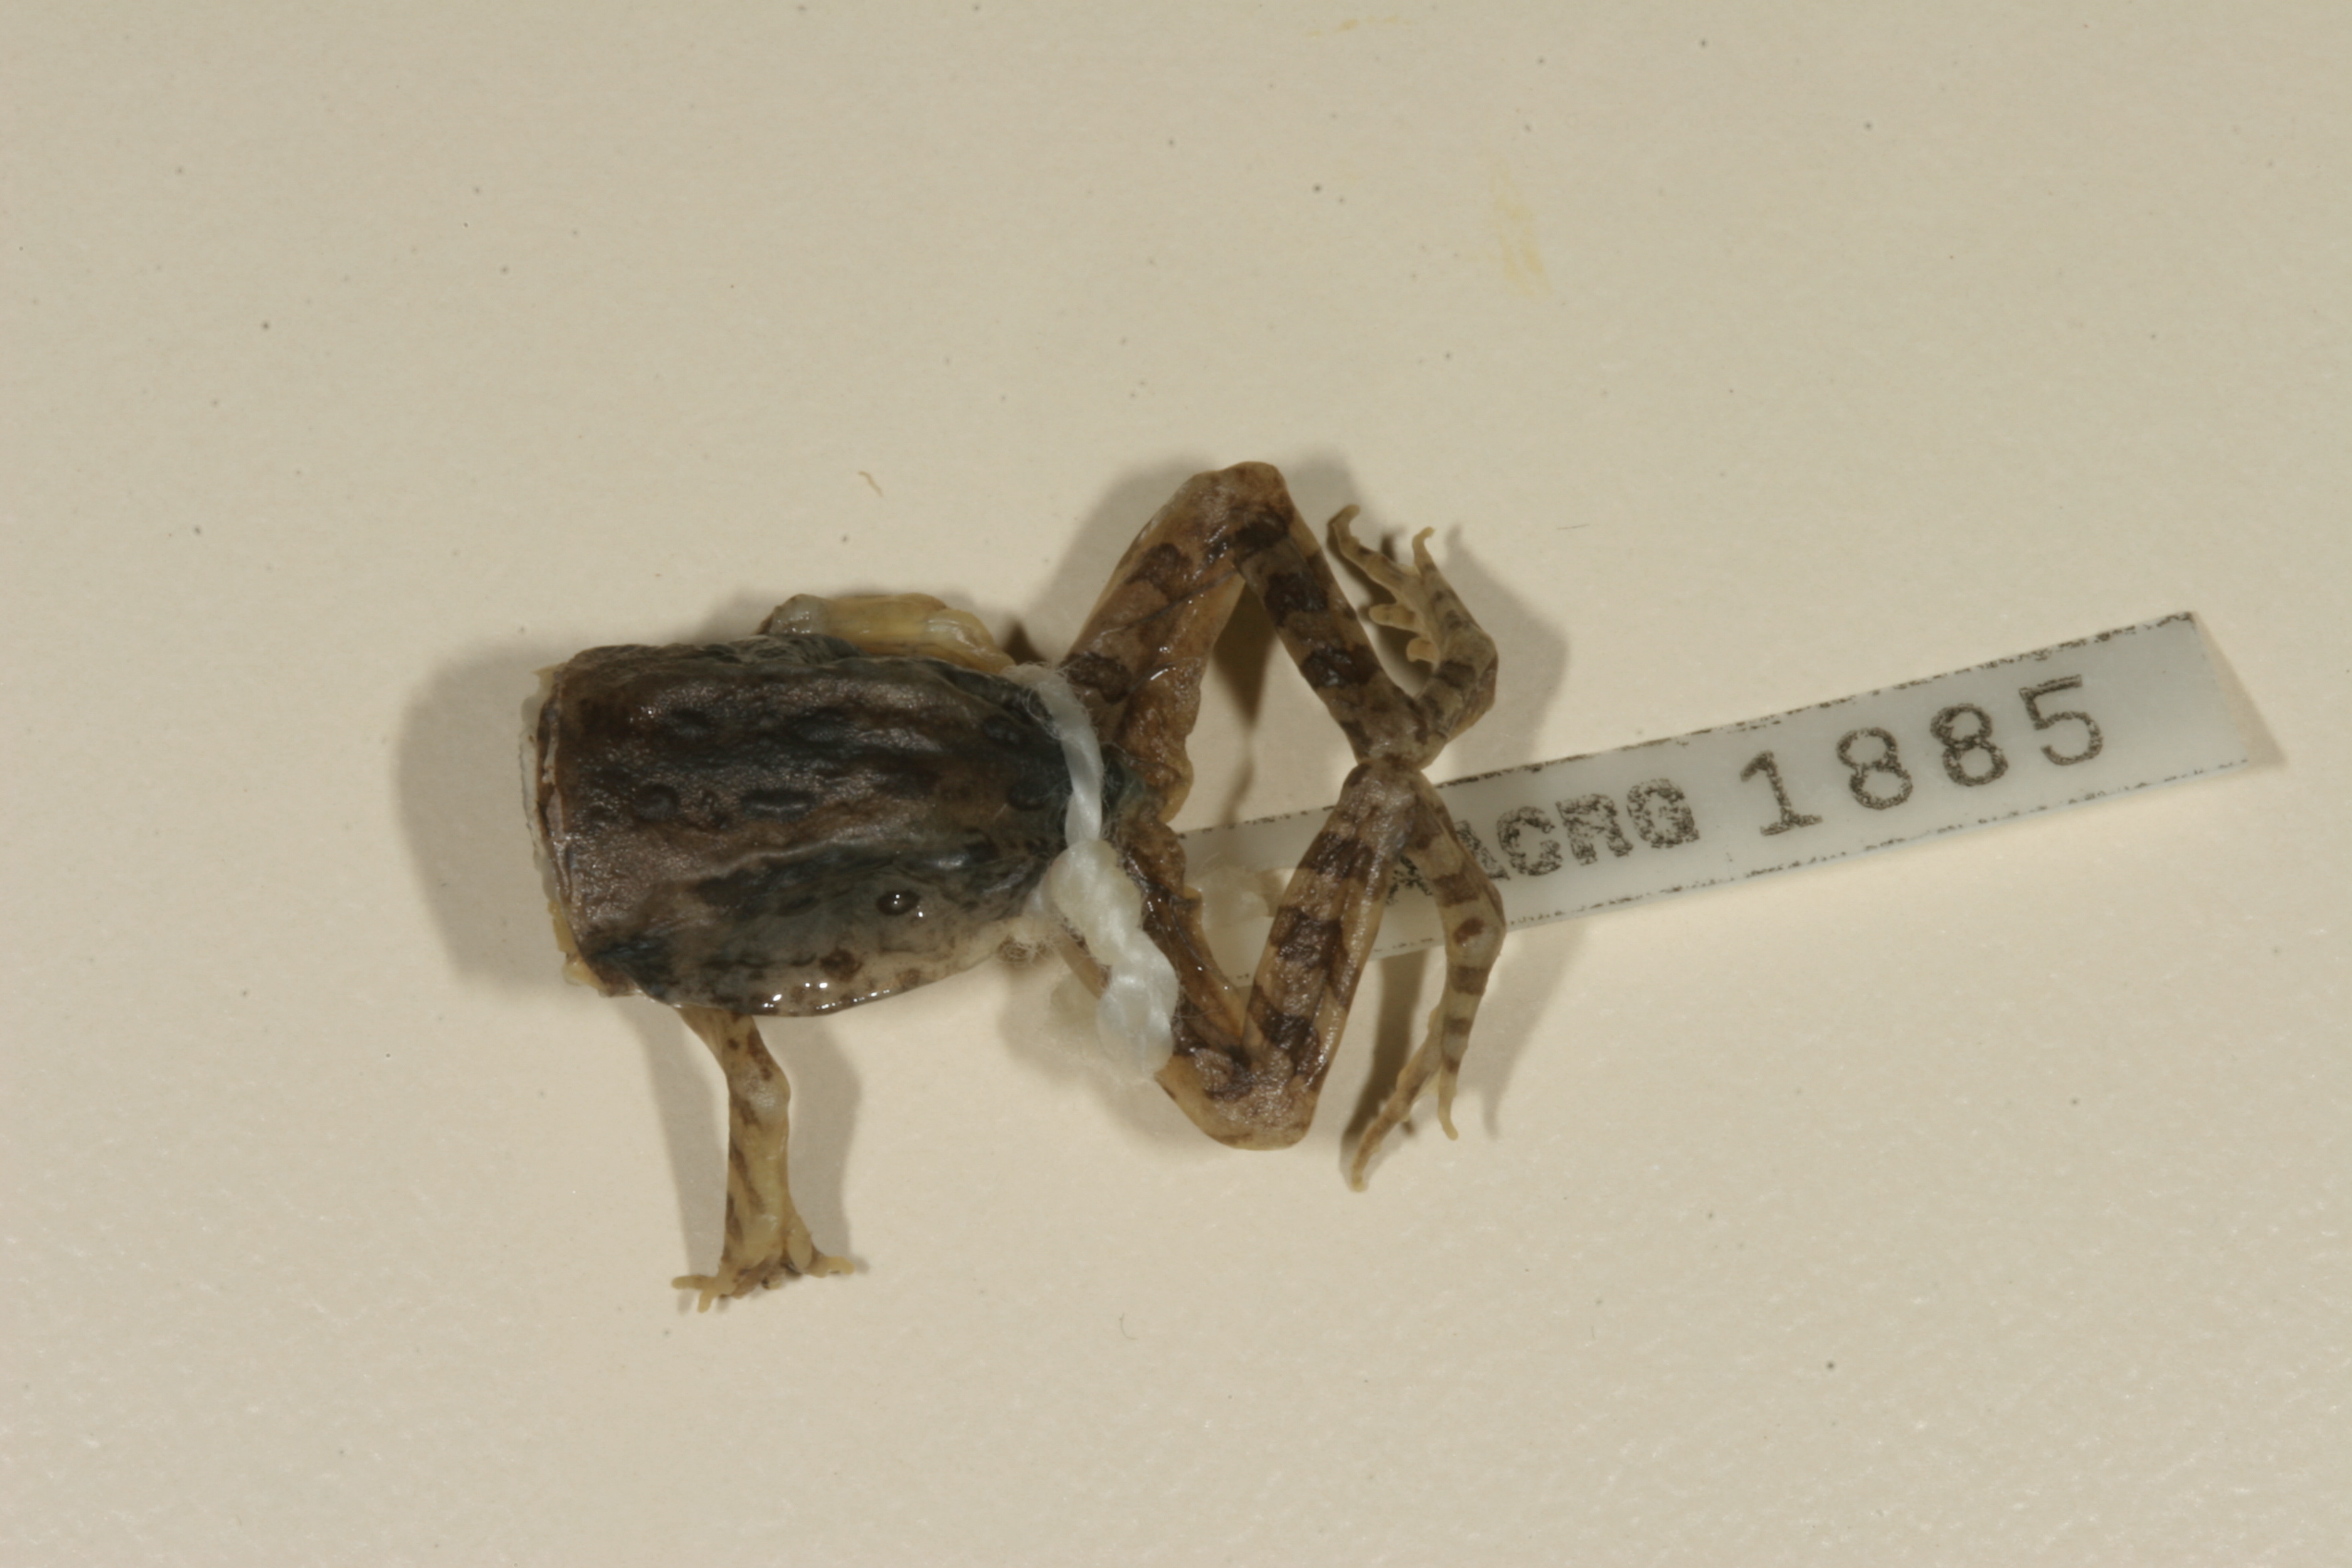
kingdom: Animalia
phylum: Chordata
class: Amphibia
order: Anura
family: Ptychadenidae
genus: Hildebrandtia
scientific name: Hildebrandtia ornata
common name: Ornate frog
